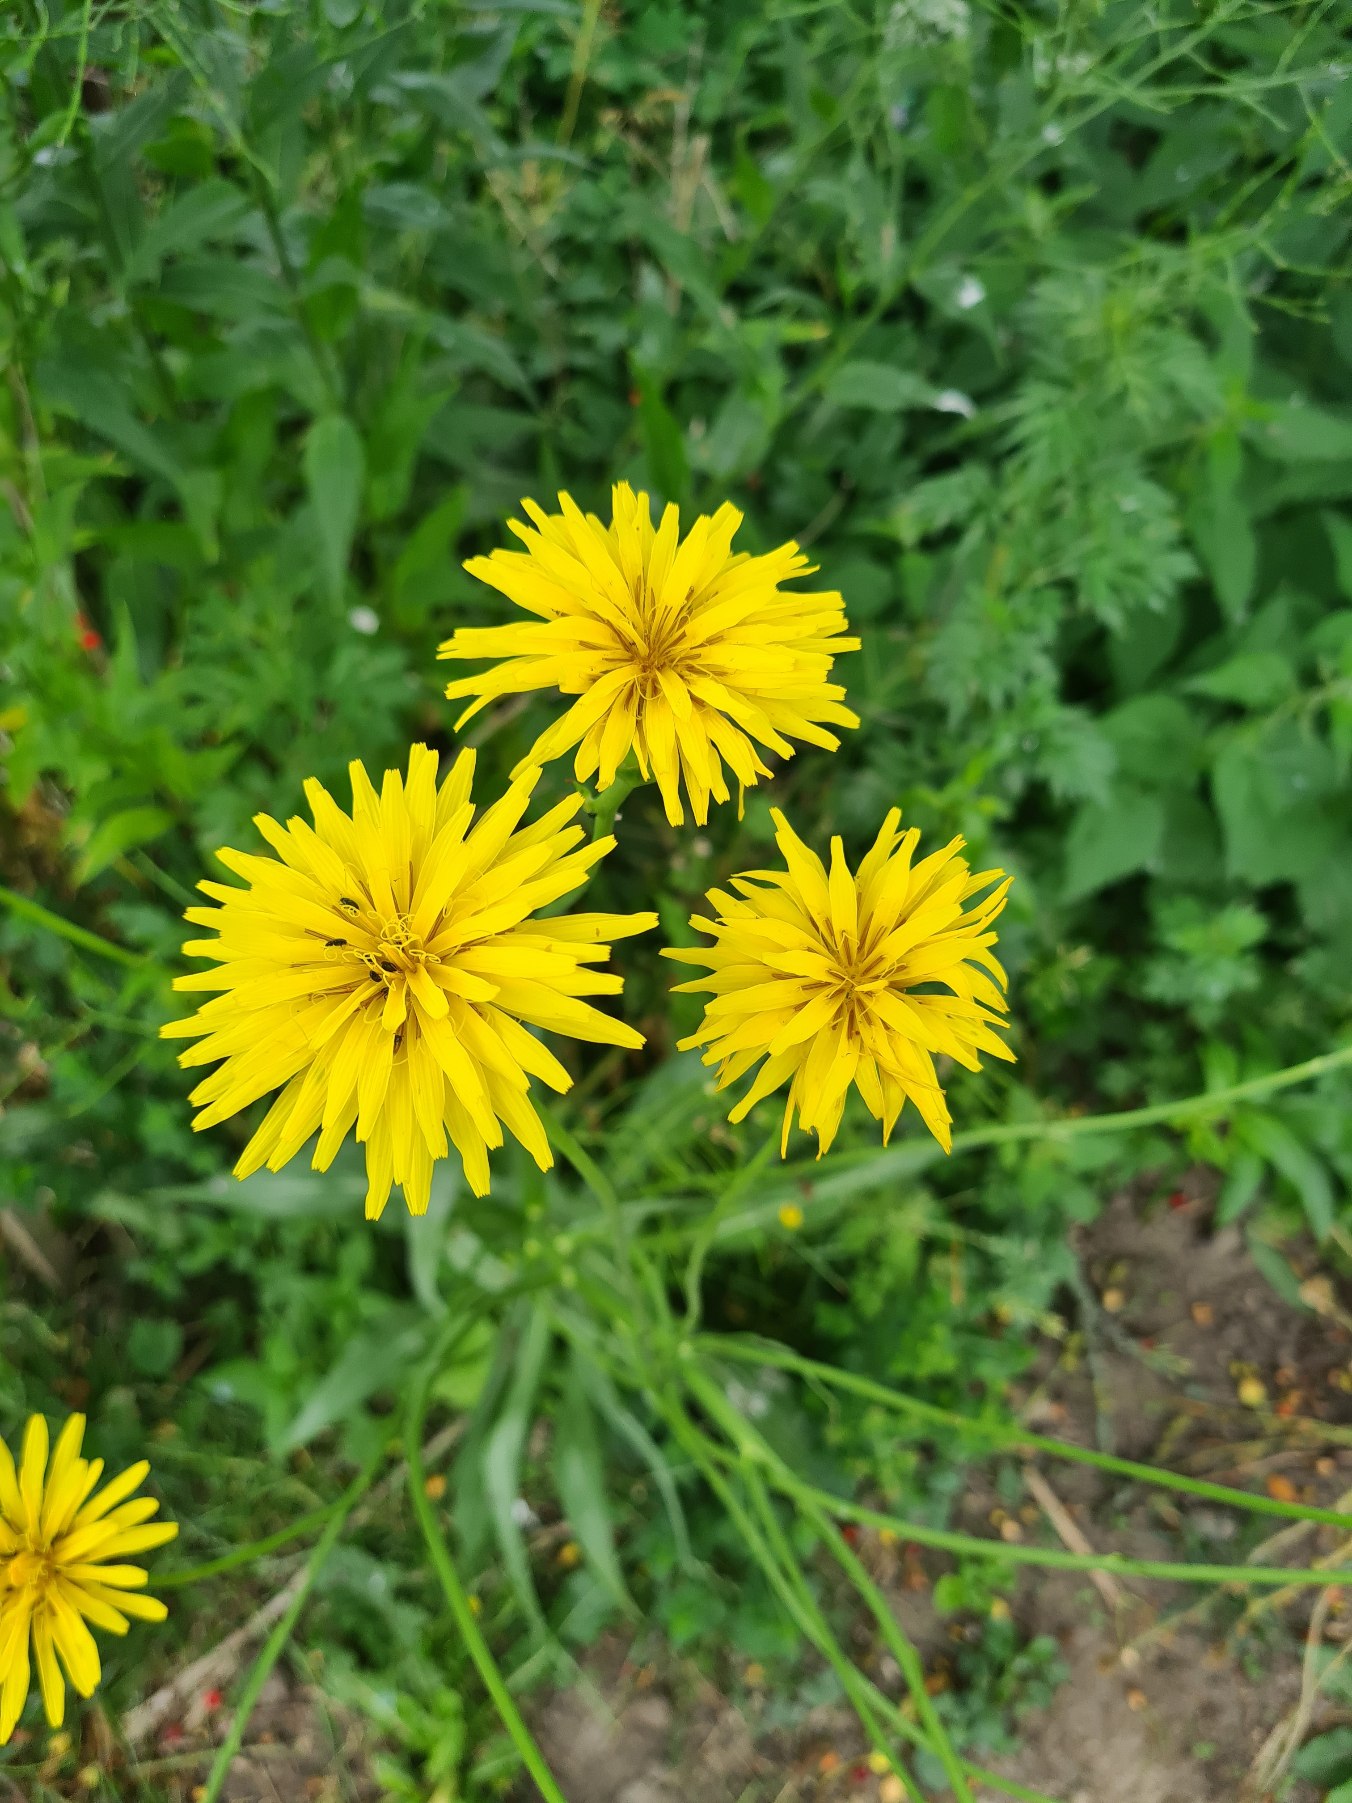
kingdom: Plantae
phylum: Tracheophyta
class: Magnoliopsida
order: Asterales
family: Asteraceae
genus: Pseudopodospermum
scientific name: Pseudopodospermum hispanicum
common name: Have-skorsoner
